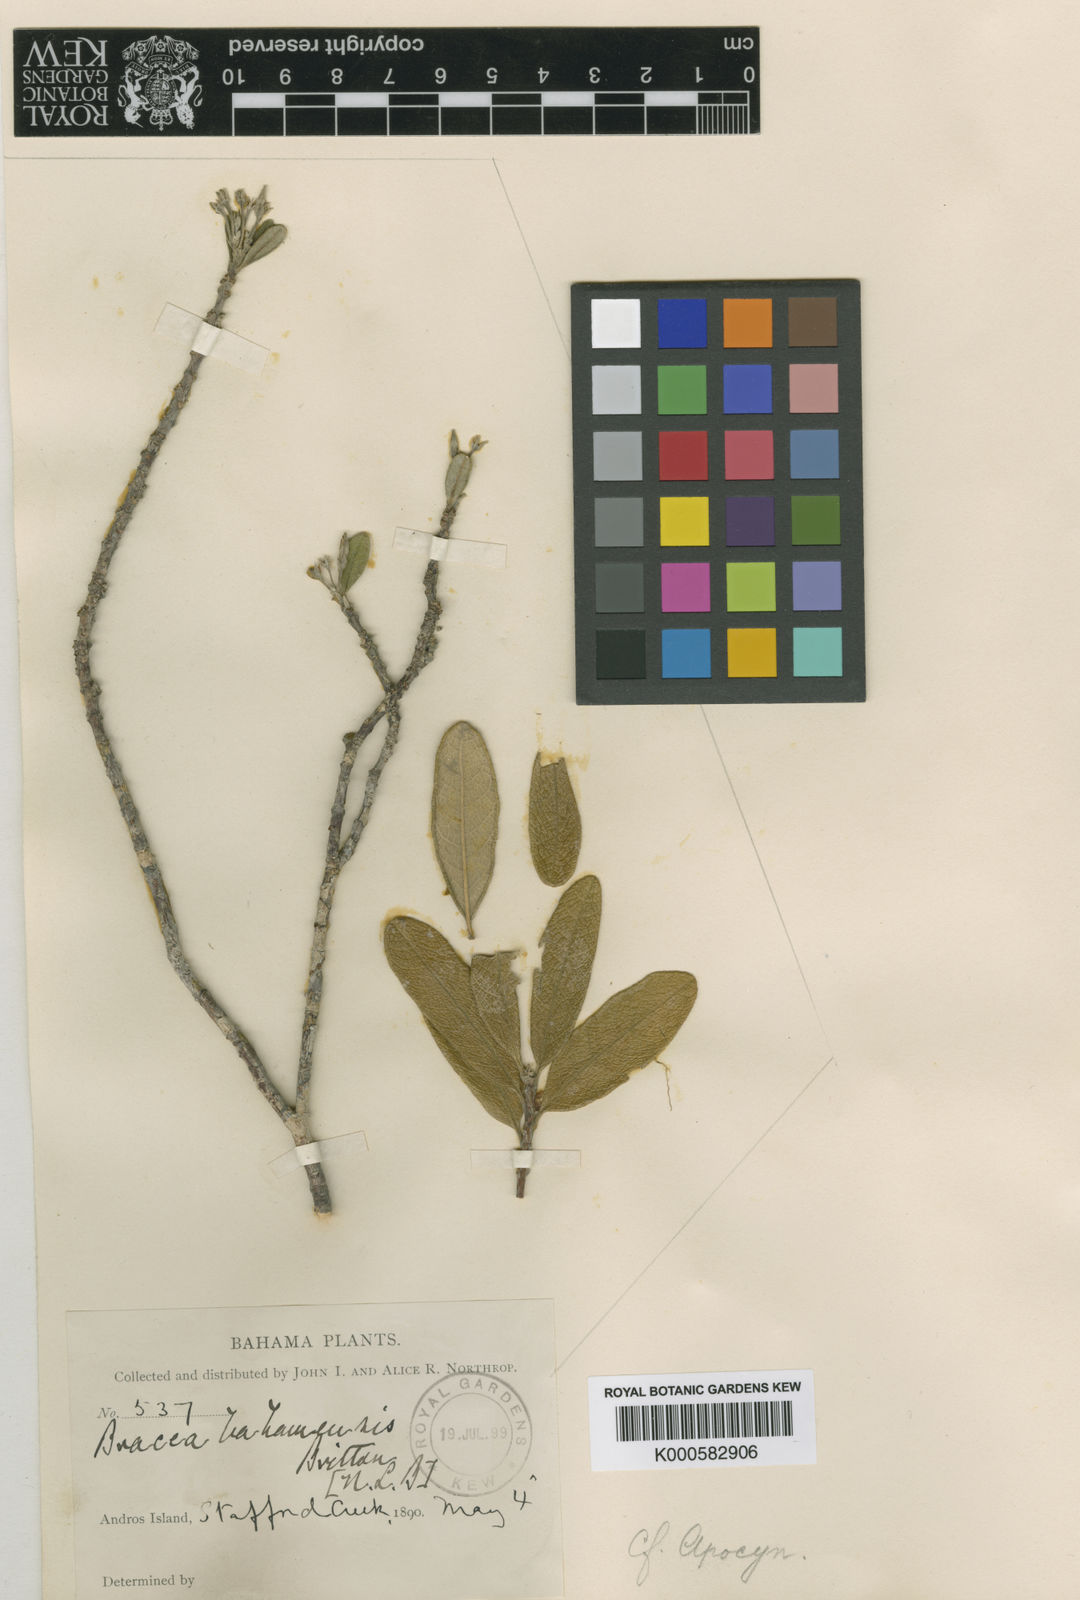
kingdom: Plantae
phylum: Tracheophyta
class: Magnoliopsida
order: Gentianales
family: Apocynaceae
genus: Neobracea
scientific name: Neobracea bahamensis
